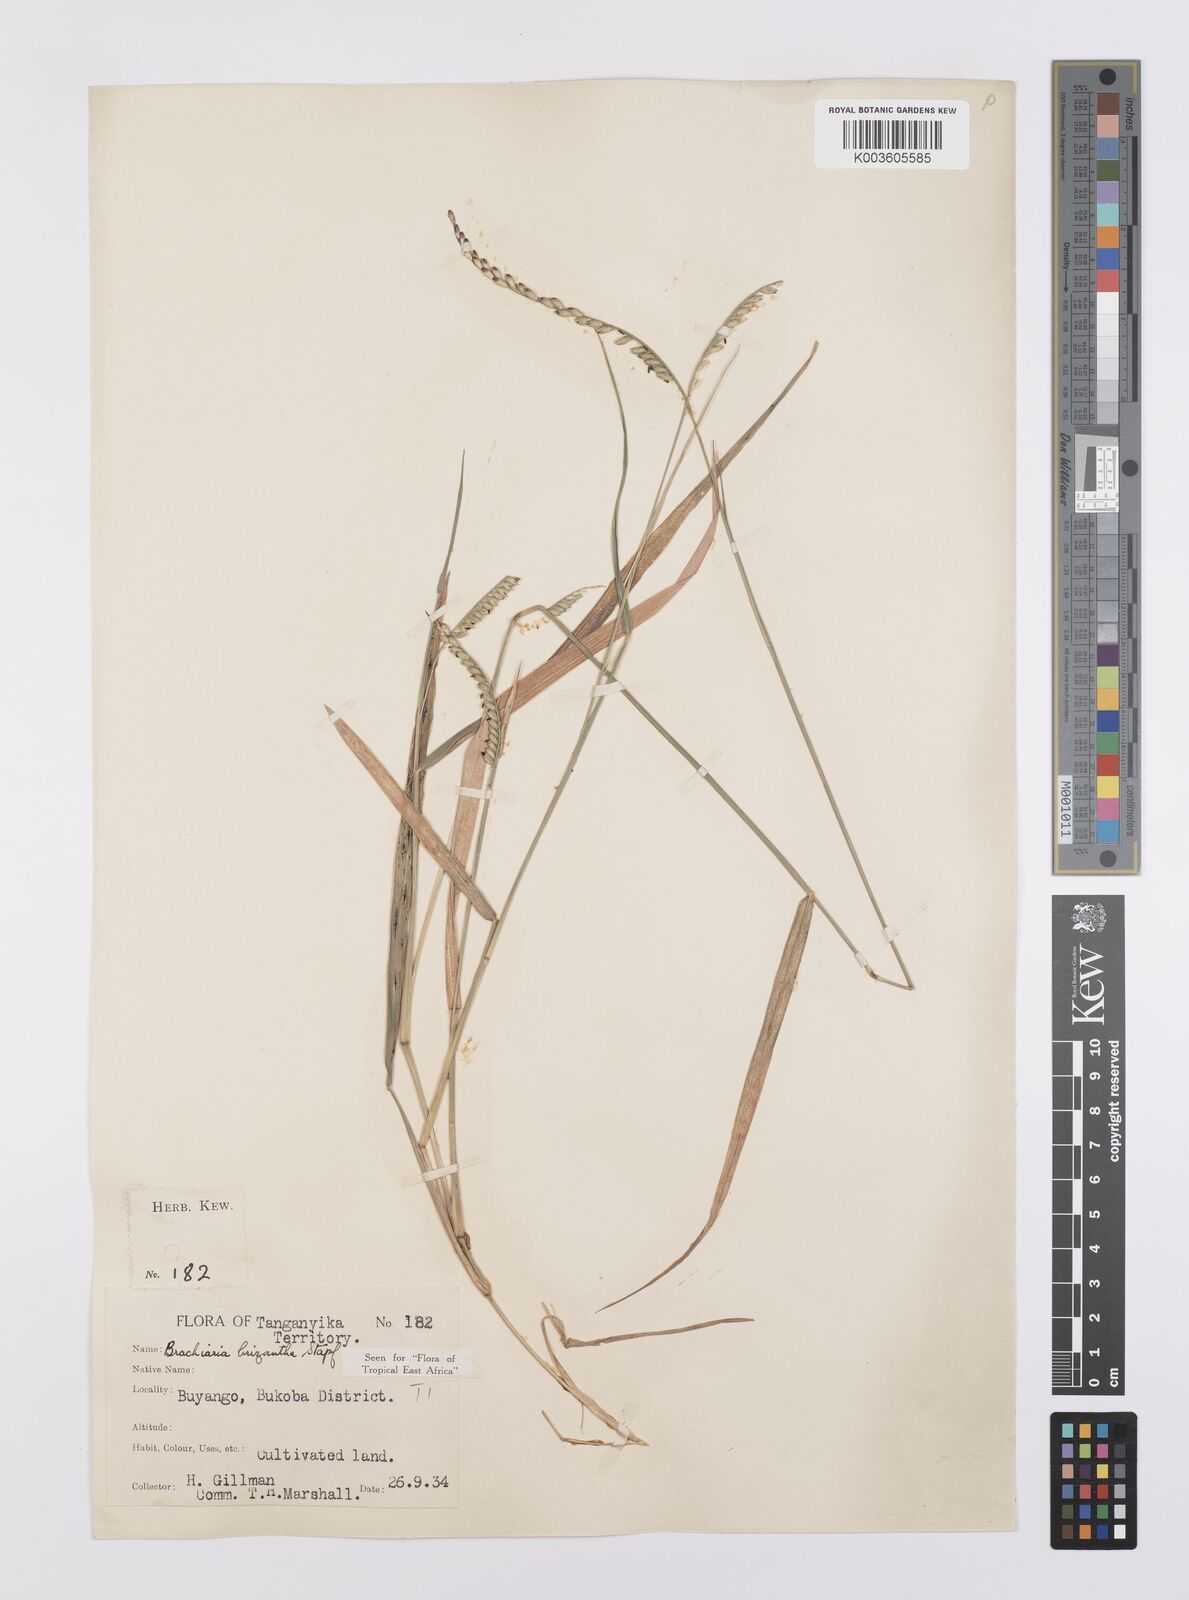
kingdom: Plantae
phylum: Tracheophyta
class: Liliopsida
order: Poales
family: Poaceae
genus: Urochloa
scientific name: Urochloa brizantha
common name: Palisade signalgrass
